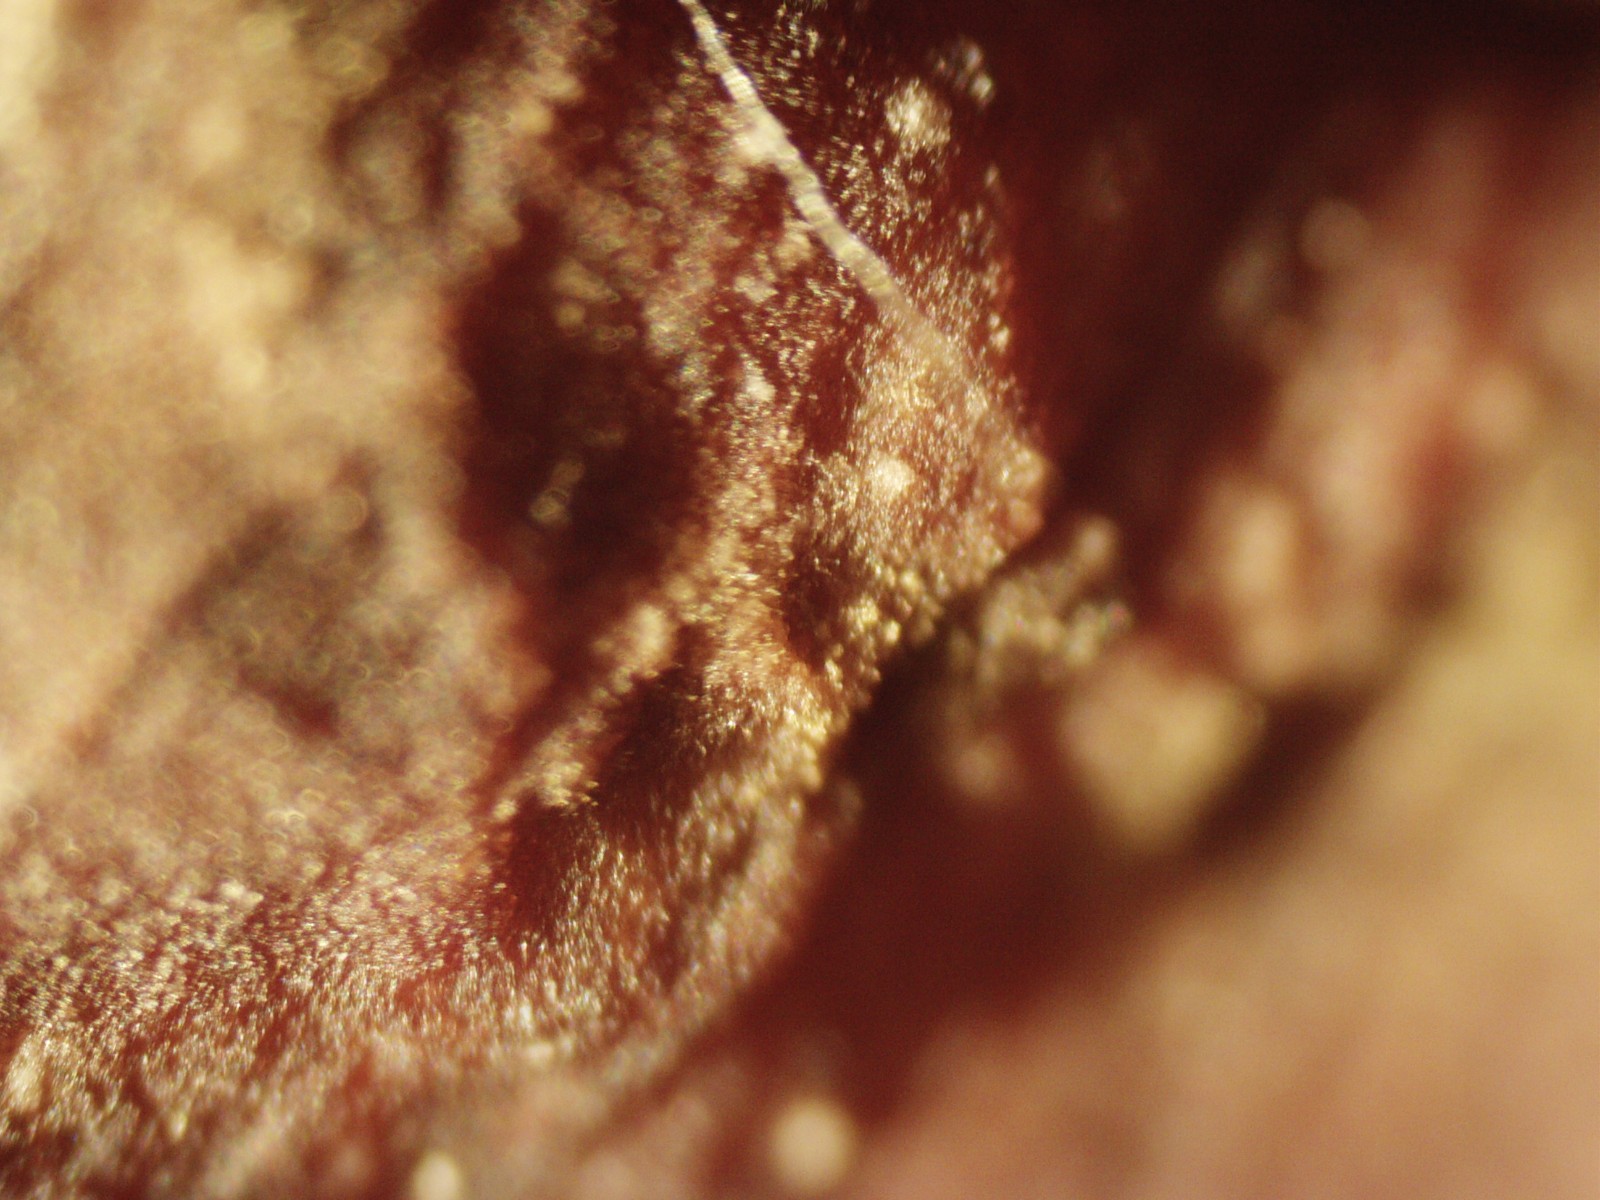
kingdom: Fungi
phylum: Ascomycota
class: Taphrinomycetes
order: Taphrinales
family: Taphrinaceae
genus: Taphrina
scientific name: Taphrina deformans
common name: Peach leaf curl
